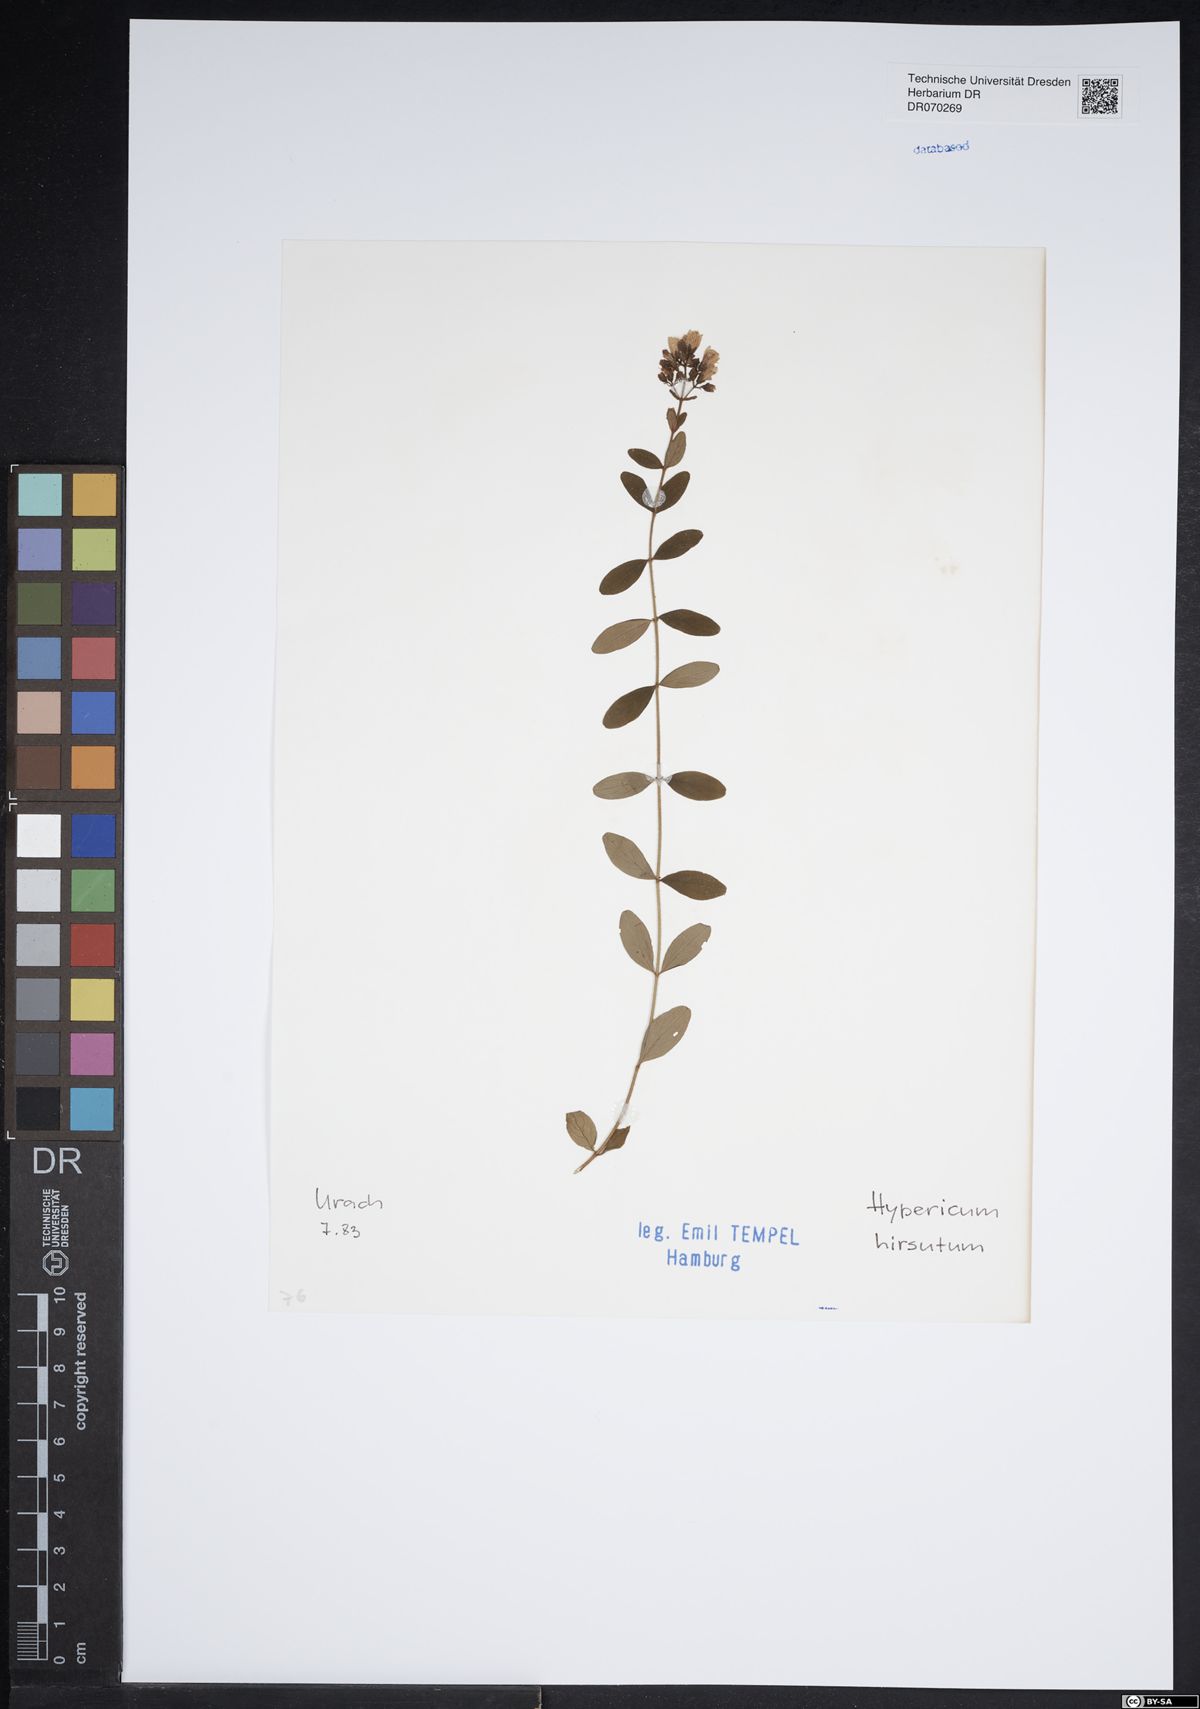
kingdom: Plantae
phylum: Tracheophyta
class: Magnoliopsida
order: Malpighiales
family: Hypericaceae
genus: Hypericum
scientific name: Hypericum hirsutum
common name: Hairy st. john's-wort
